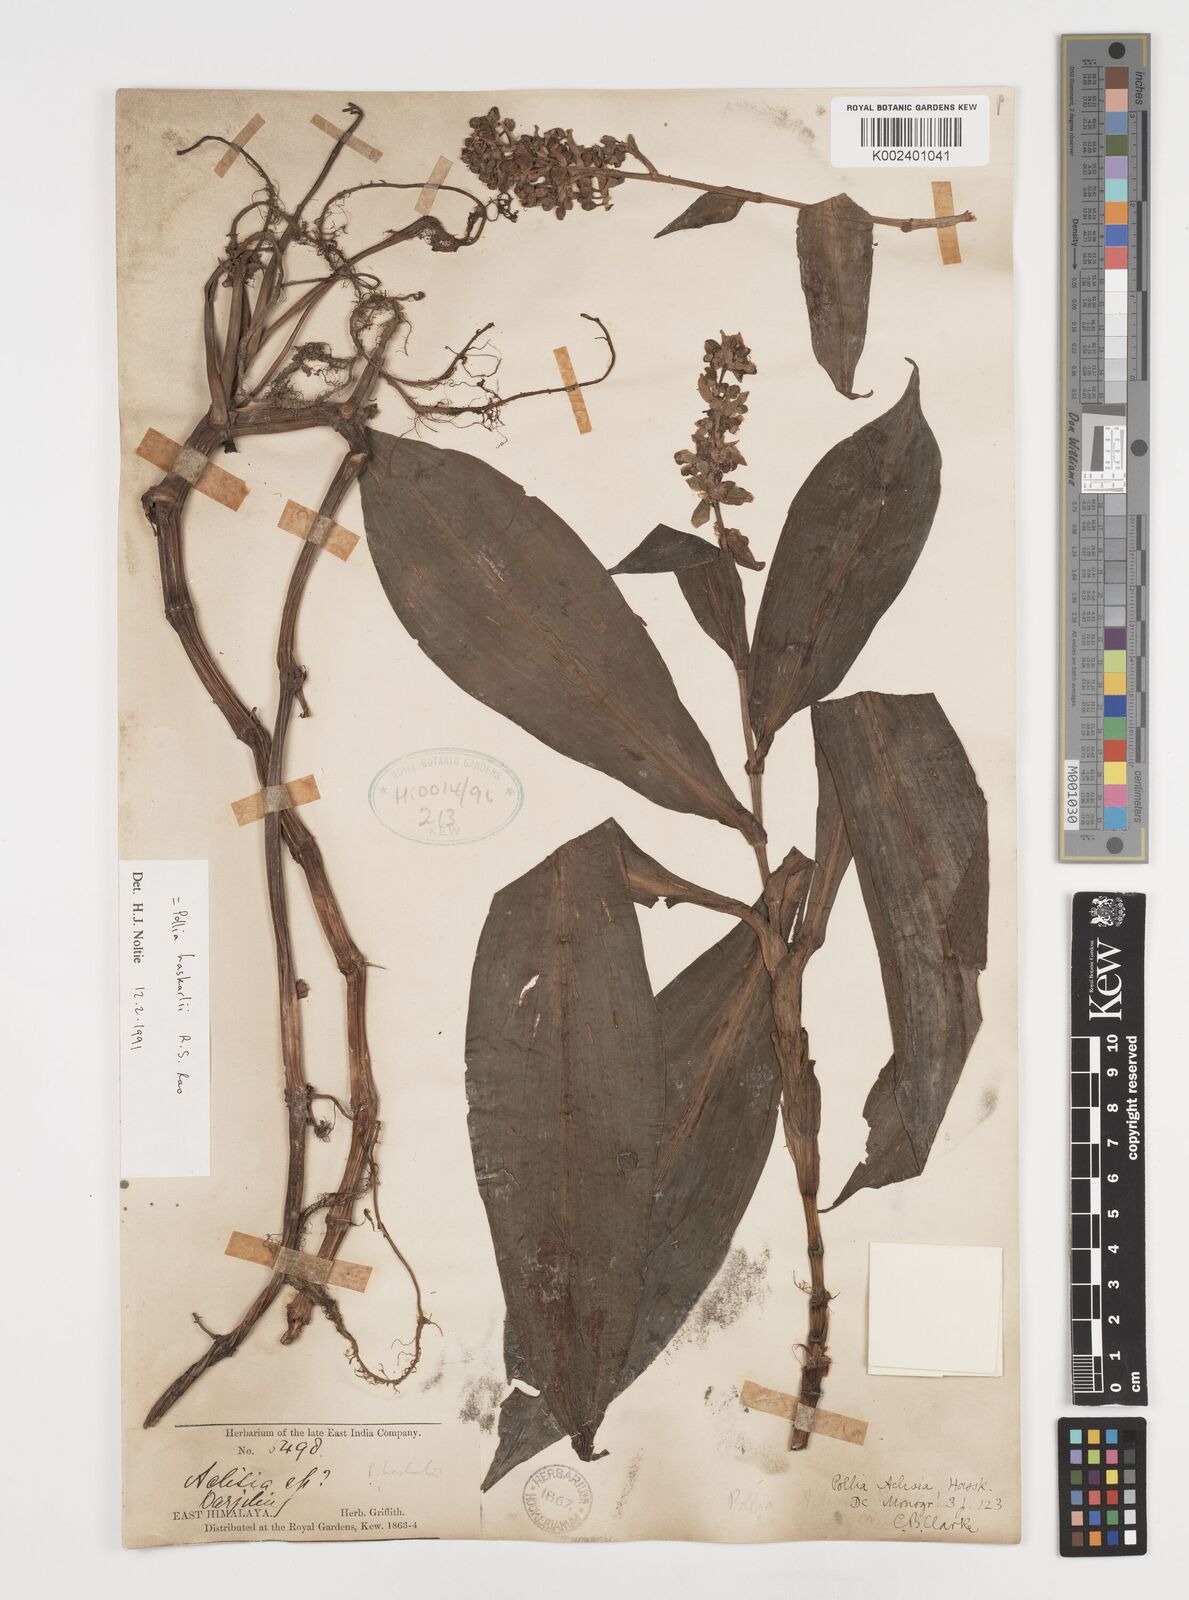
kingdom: Plantae
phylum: Tracheophyta
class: Liliopsida
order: Commelinales
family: Commelinaceae
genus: Pollia
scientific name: Pollia hasskarlii
